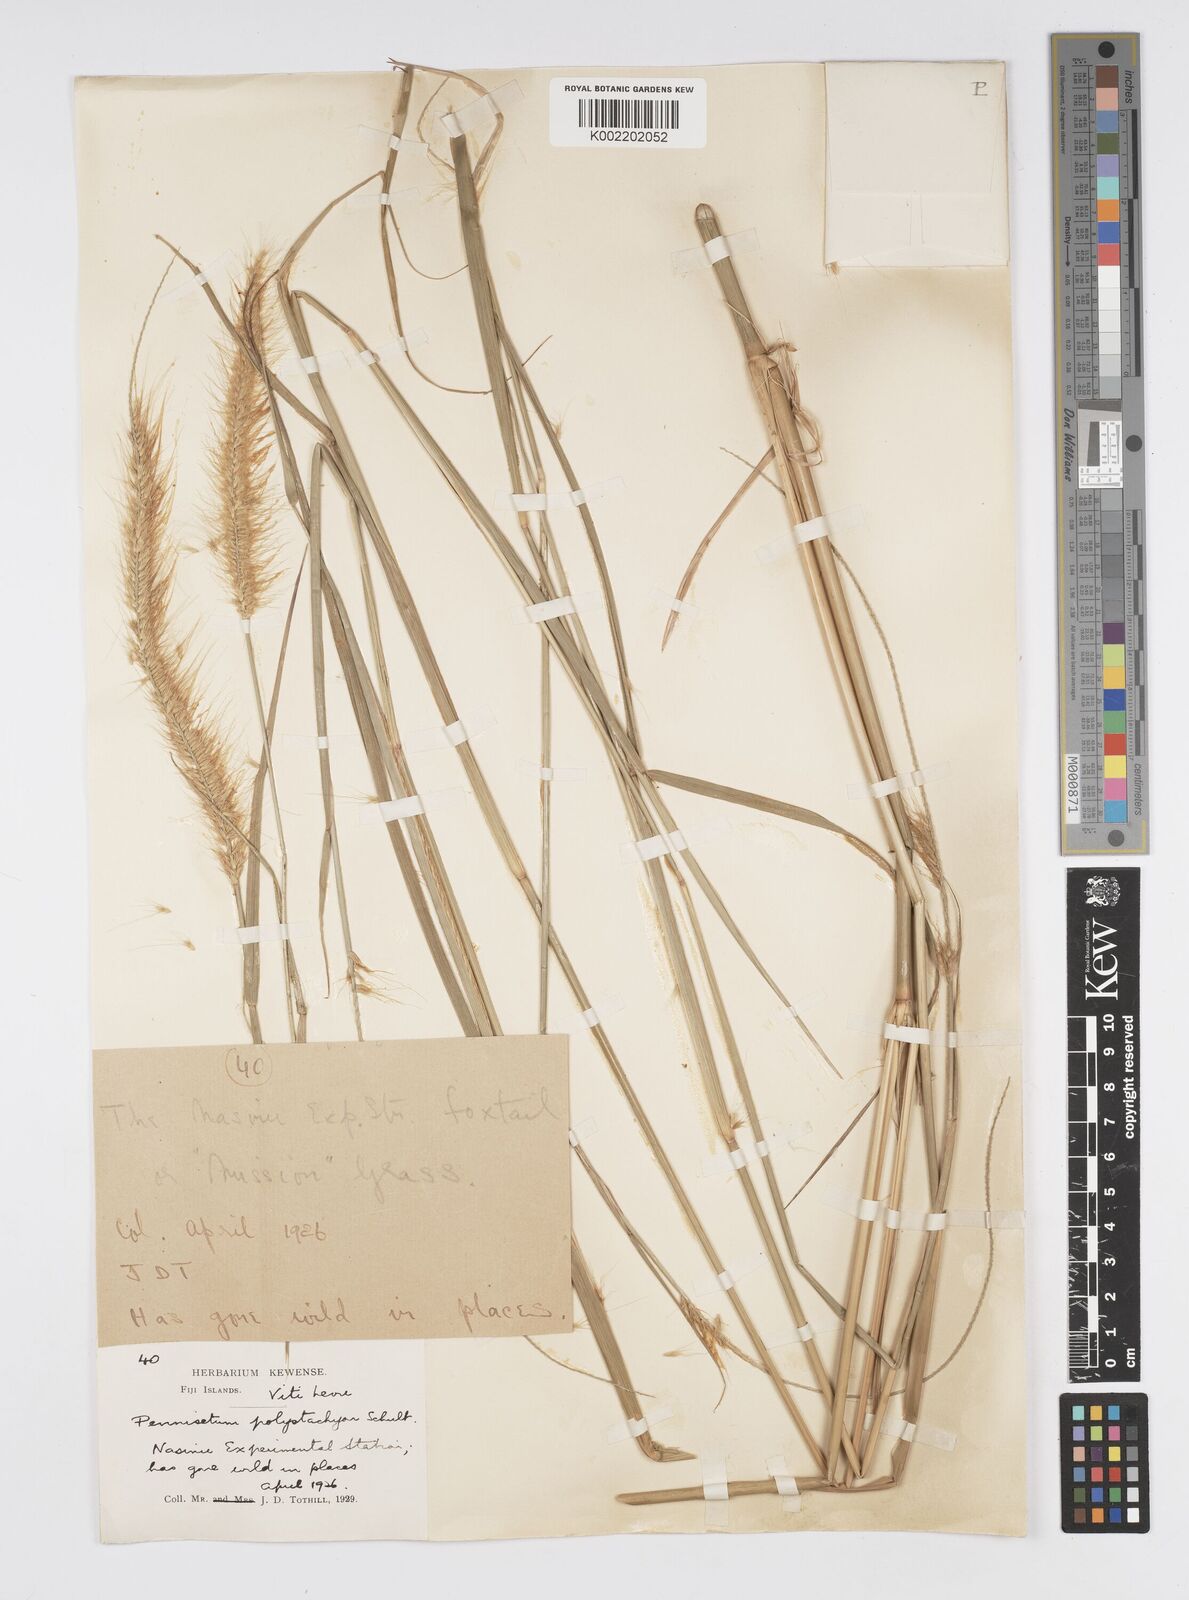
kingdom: Plantae
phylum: Tracheophyta
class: Liliopsida
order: Poales
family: Poaceae
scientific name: Poaceae
